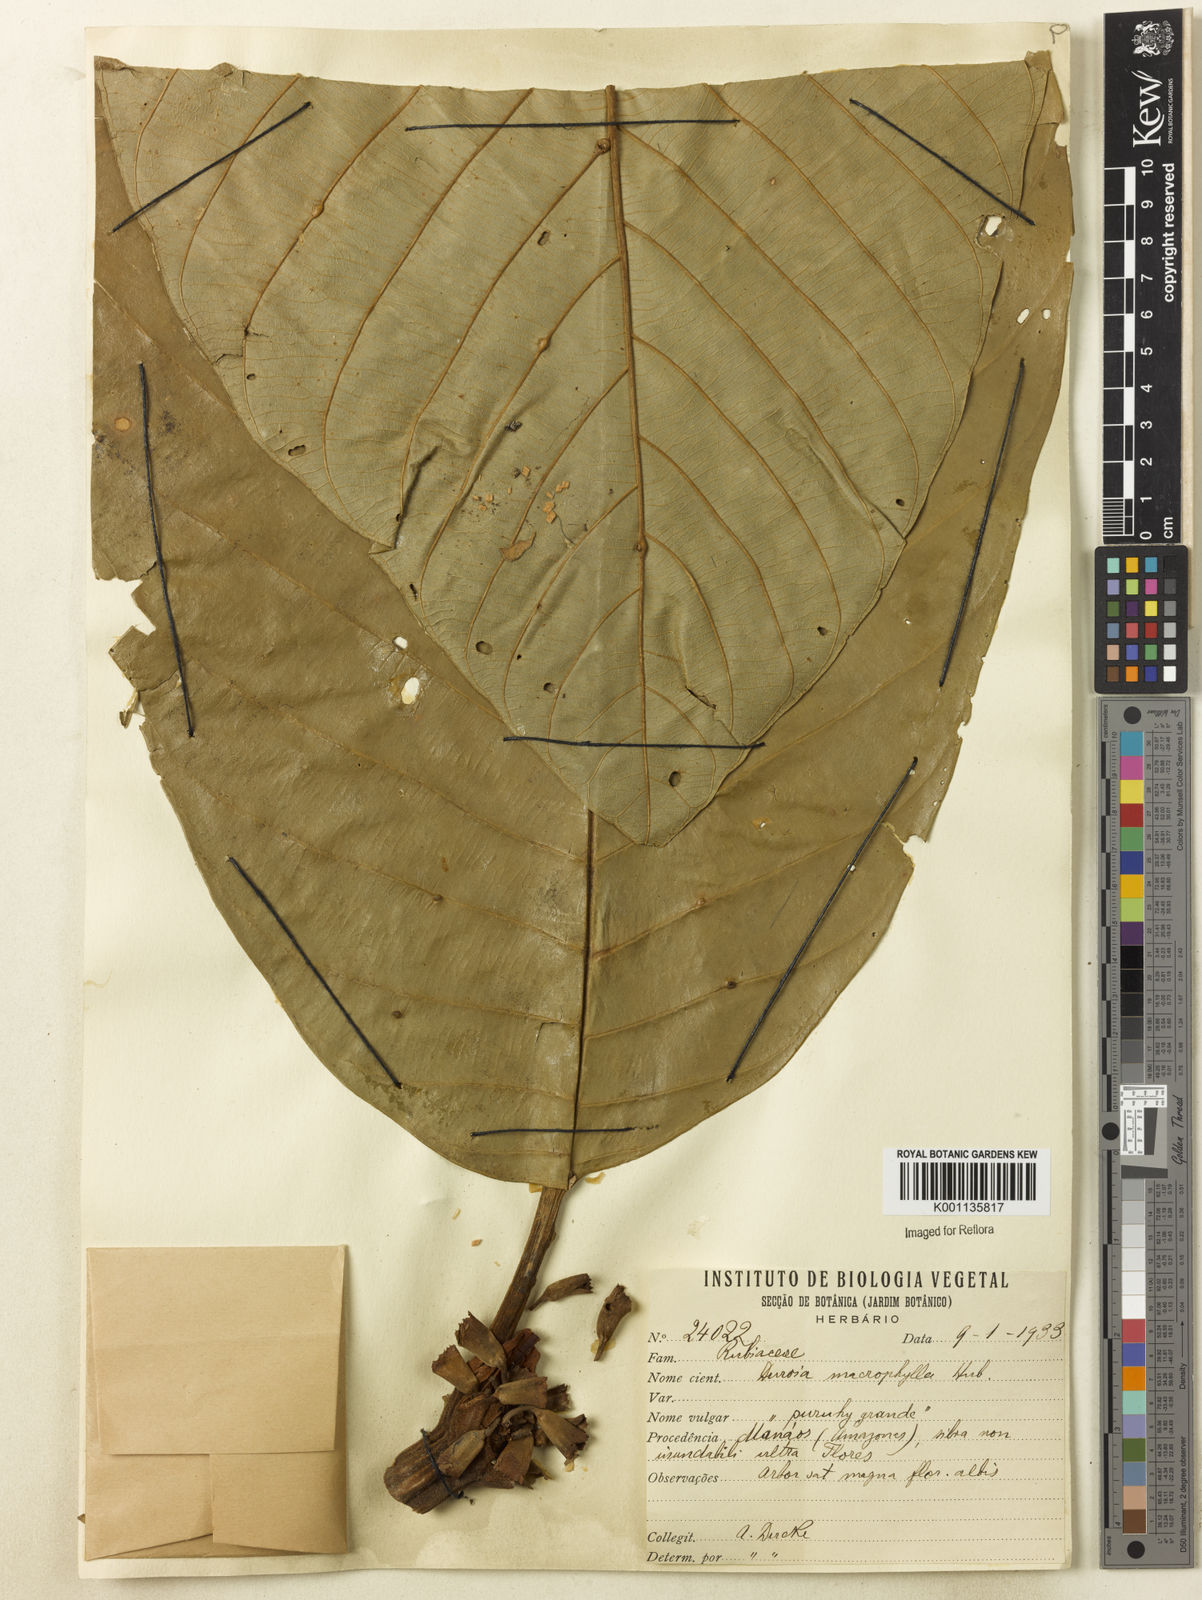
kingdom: Plantae
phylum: Tracheophyta
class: Magnoliopsida
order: Gentianales
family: Rubiaceae
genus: Duroia
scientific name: Duroia macrophylla
